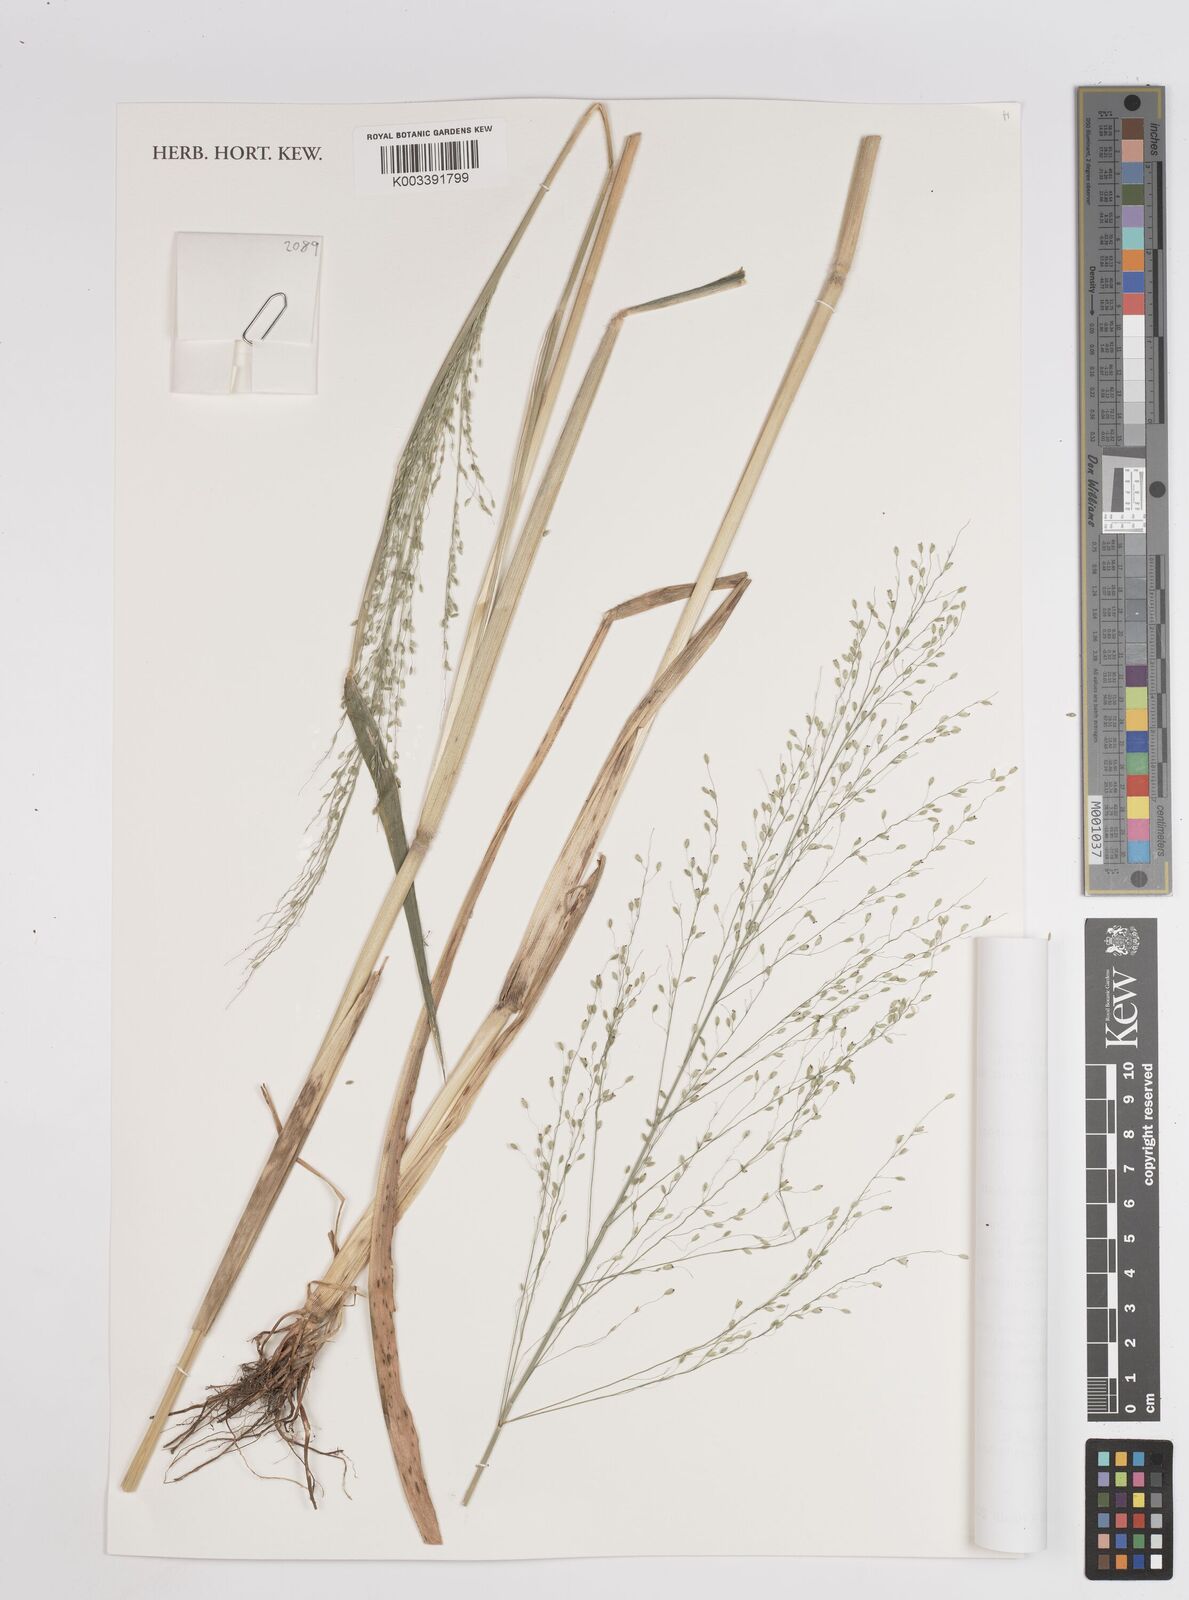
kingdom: Plantae
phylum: Tracheophyta
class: Liliopsida
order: Poales
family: Poaceae
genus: Megathyrsus
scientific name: Megathyrsus maximus
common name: Guineagrass
